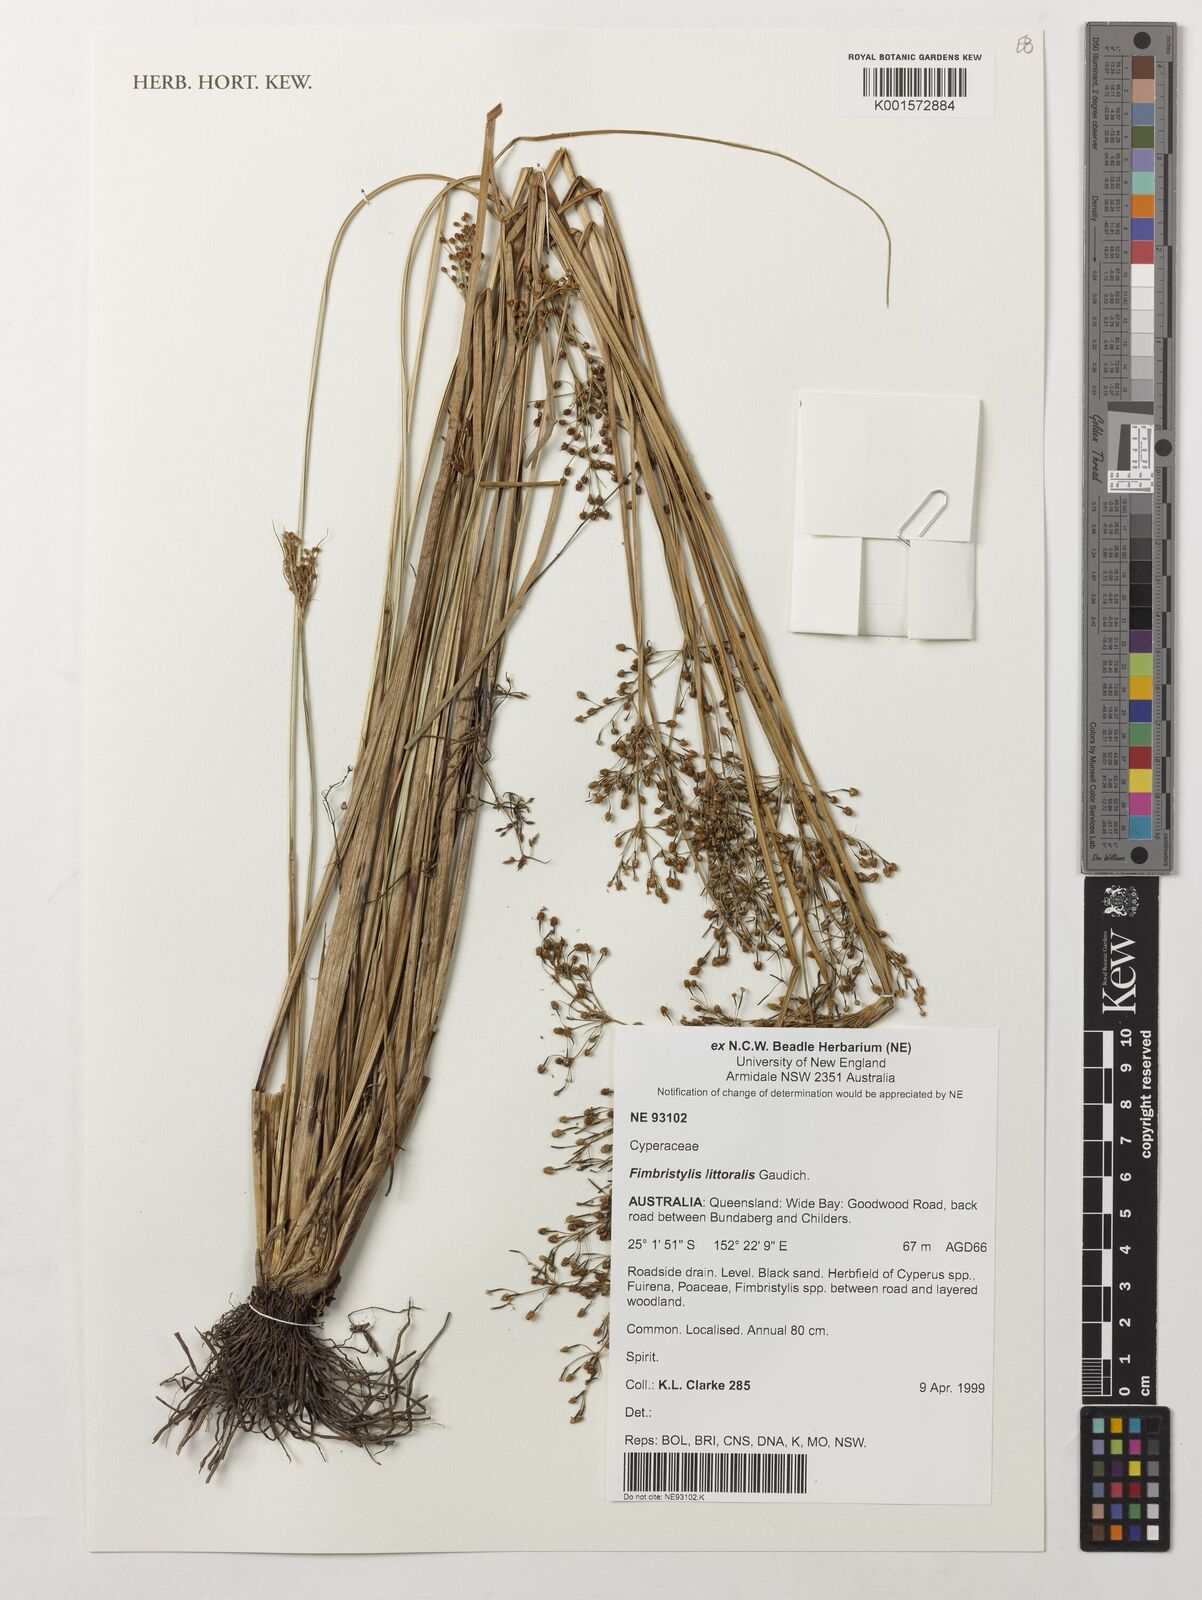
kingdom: Plantae
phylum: Tracheophyta
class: Liliopsida
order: Poales
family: Cyperaceae
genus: Fimbristylis
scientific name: Fimbristylis littoralis
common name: Fimbry
